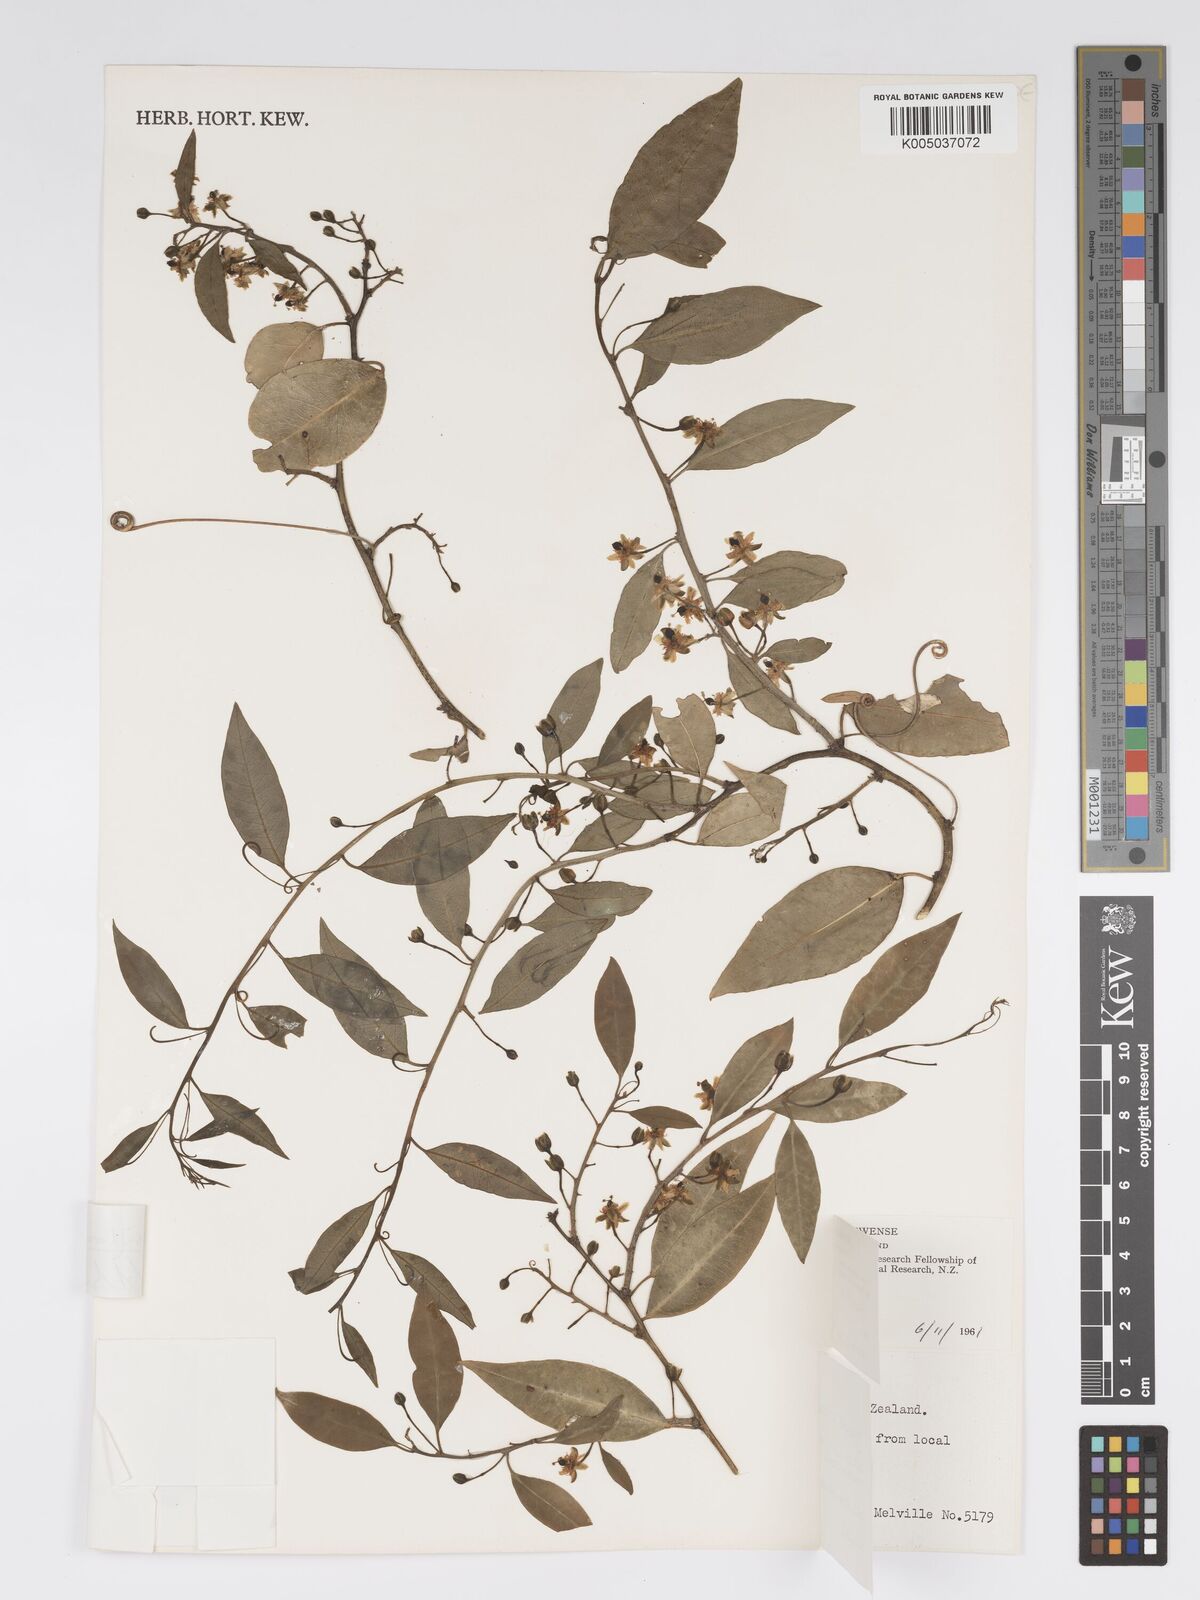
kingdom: Plantae
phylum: Tracheophyta
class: Magnoliopsida
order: Malpighiales
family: Passifloraceae
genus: Passiflora
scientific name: Passiflora tetrandra
